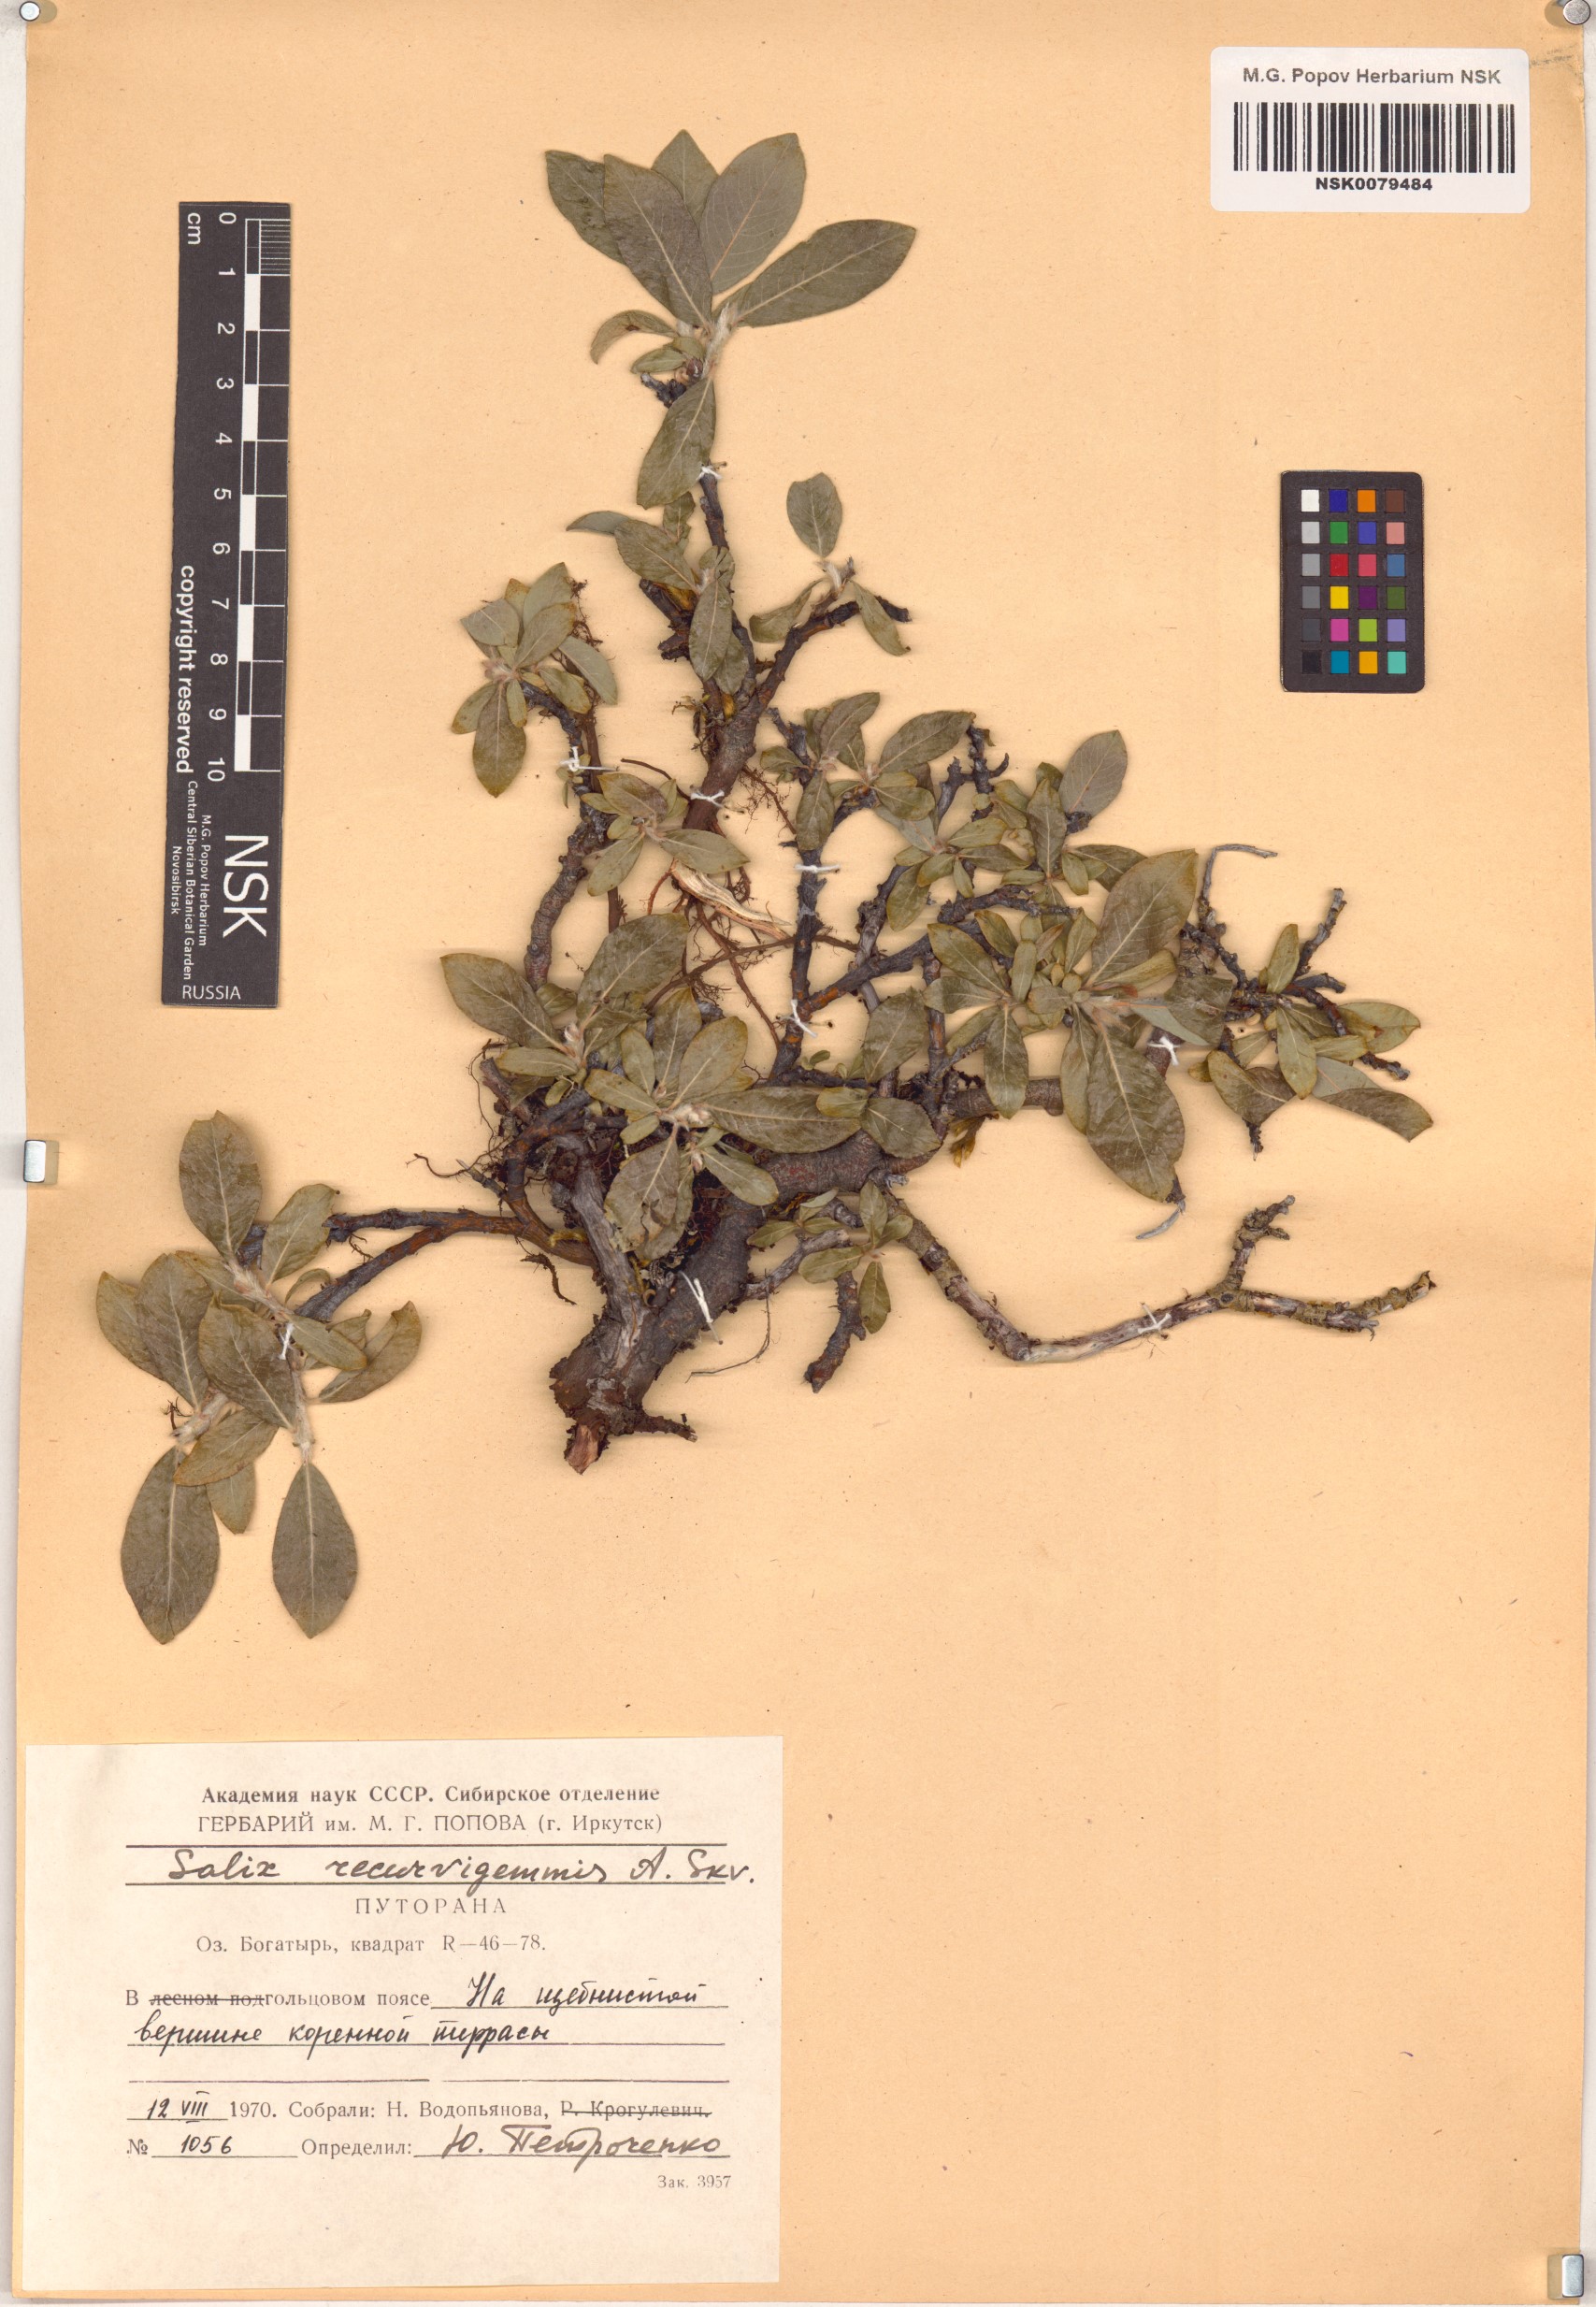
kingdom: Plantae
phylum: Tracheophyta
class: Magnoliopsida
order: Malpighiales
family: Salicaceae
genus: Salix
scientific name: Salix recurvigemmata
